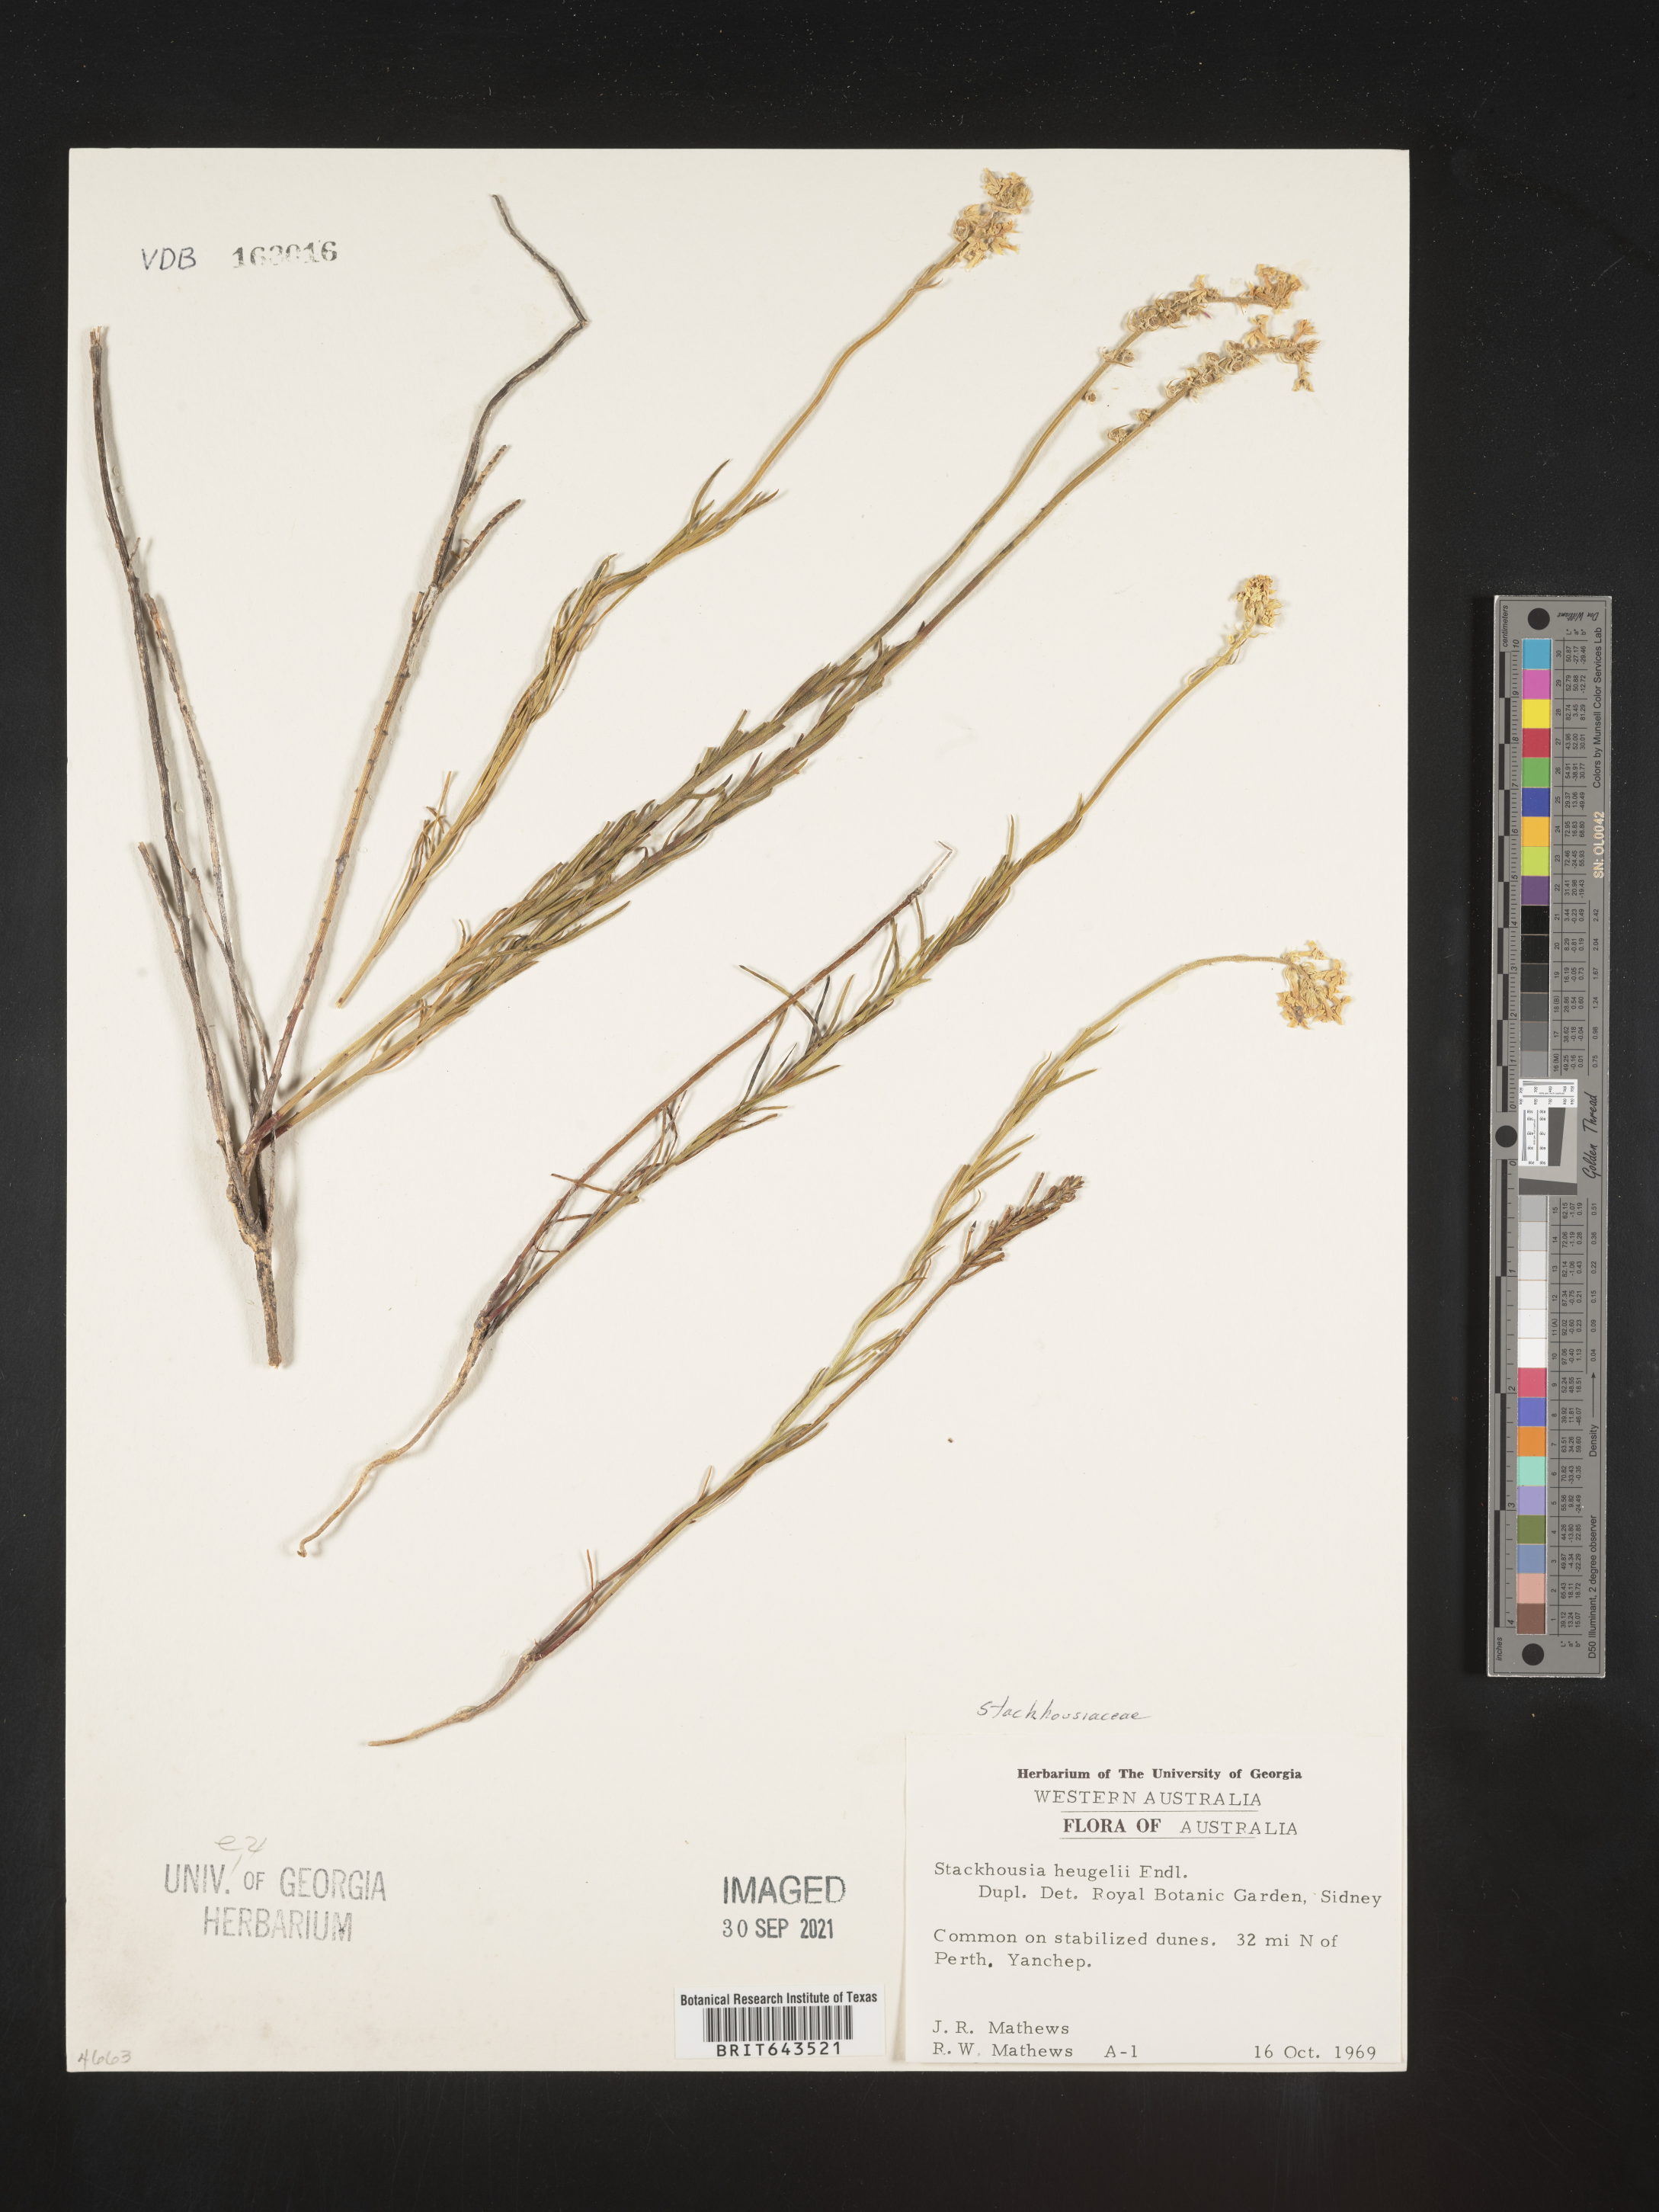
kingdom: Plantae
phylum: Tracheophyta
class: Magnoliopsida
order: Celastrales
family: Celastraceae
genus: Stackhousia
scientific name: Stackhousia monogyna
